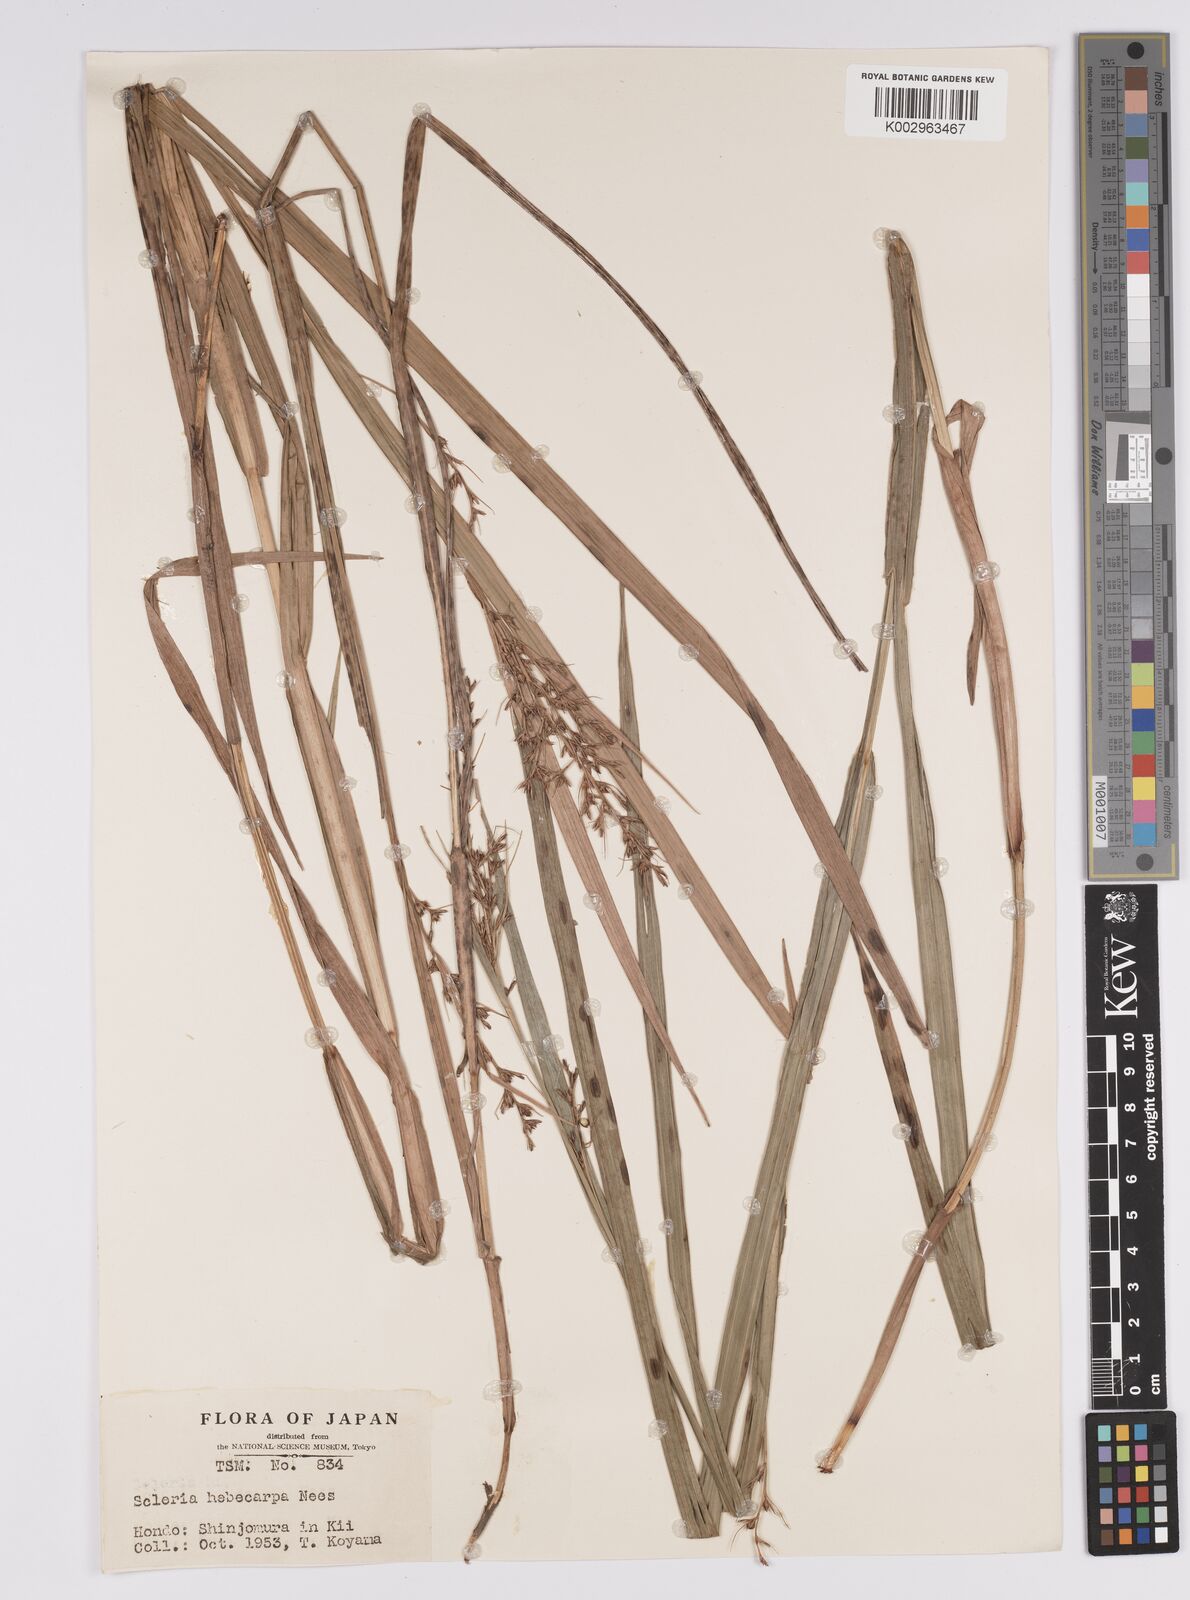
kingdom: Plantae
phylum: Tracheophyta
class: Liliopsida
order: Poales
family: Cyperaceae
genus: Scleria
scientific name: Scleria levis
